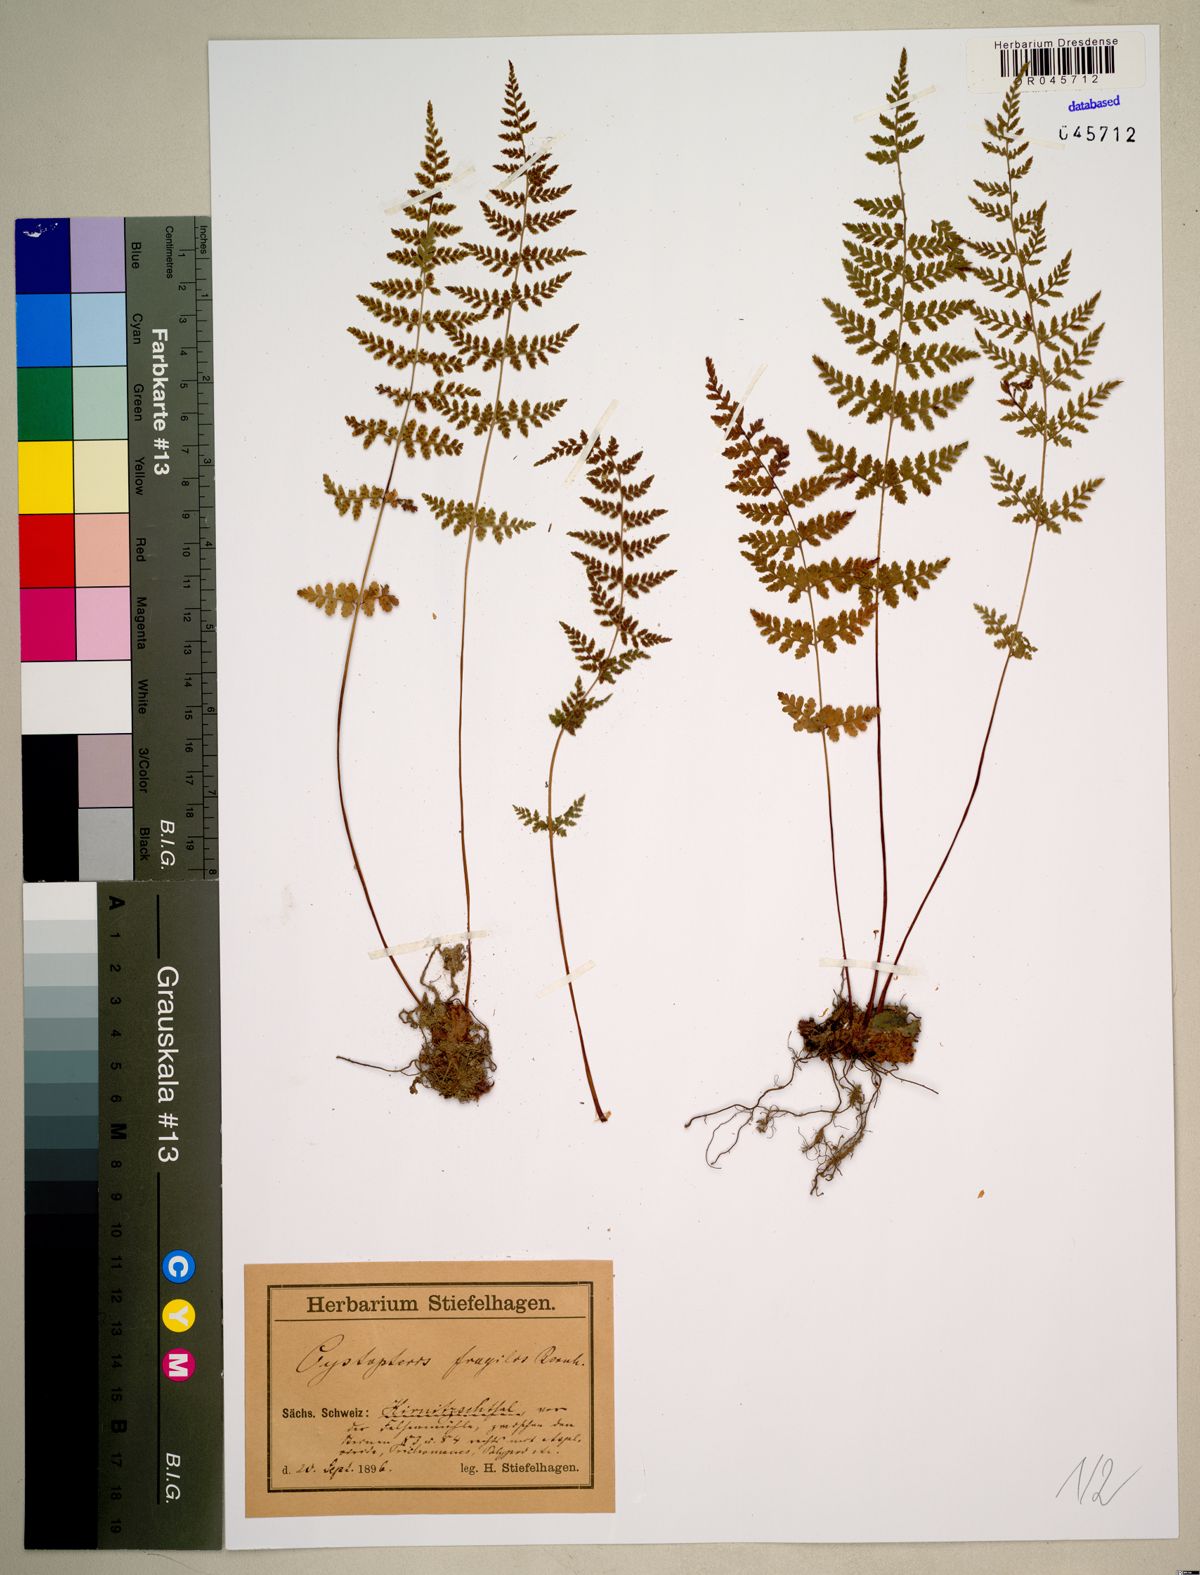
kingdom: Plantae
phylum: Tracheophyta
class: Polypodiopsida
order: Polypodiales
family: Cystopteridaceae
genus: Cystopteris
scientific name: Cystopteris fragilis
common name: Brittle bladder fern
